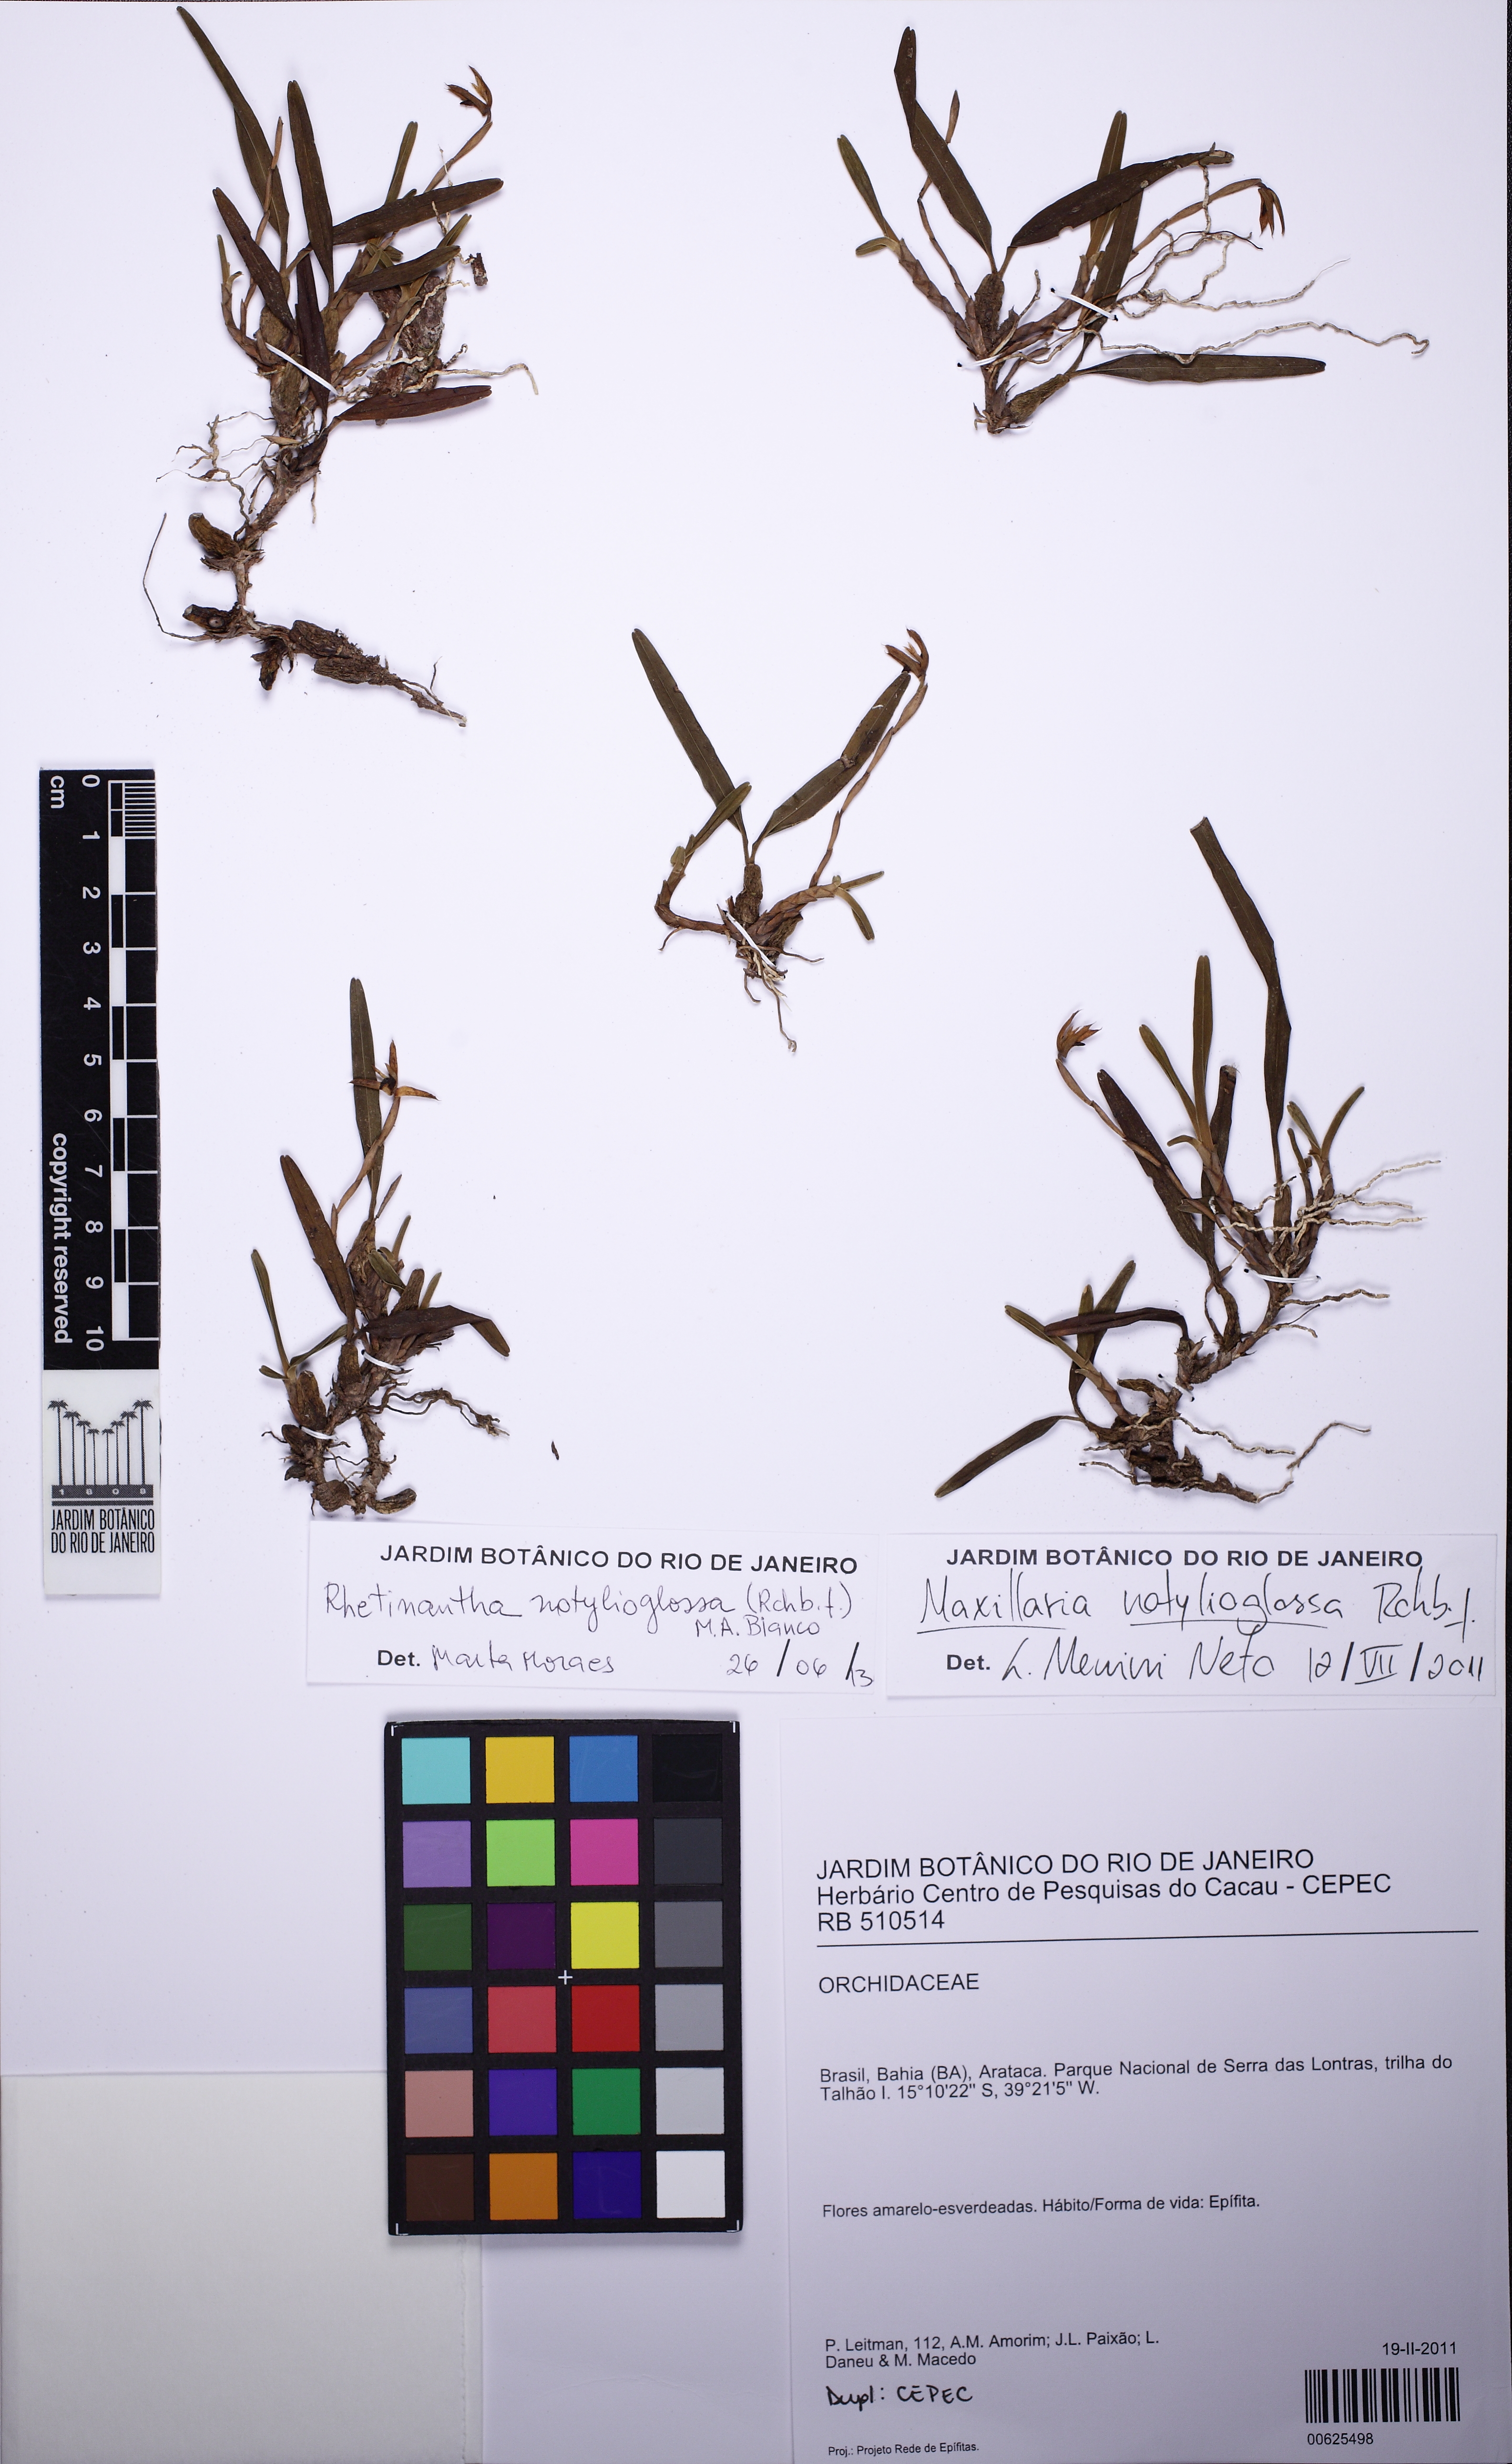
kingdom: Plantae
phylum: Tracheophyta
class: Liliopsida
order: Asparagales
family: Orchidaceae
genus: Maxillaria
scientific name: Maxillaria notylioglossa
